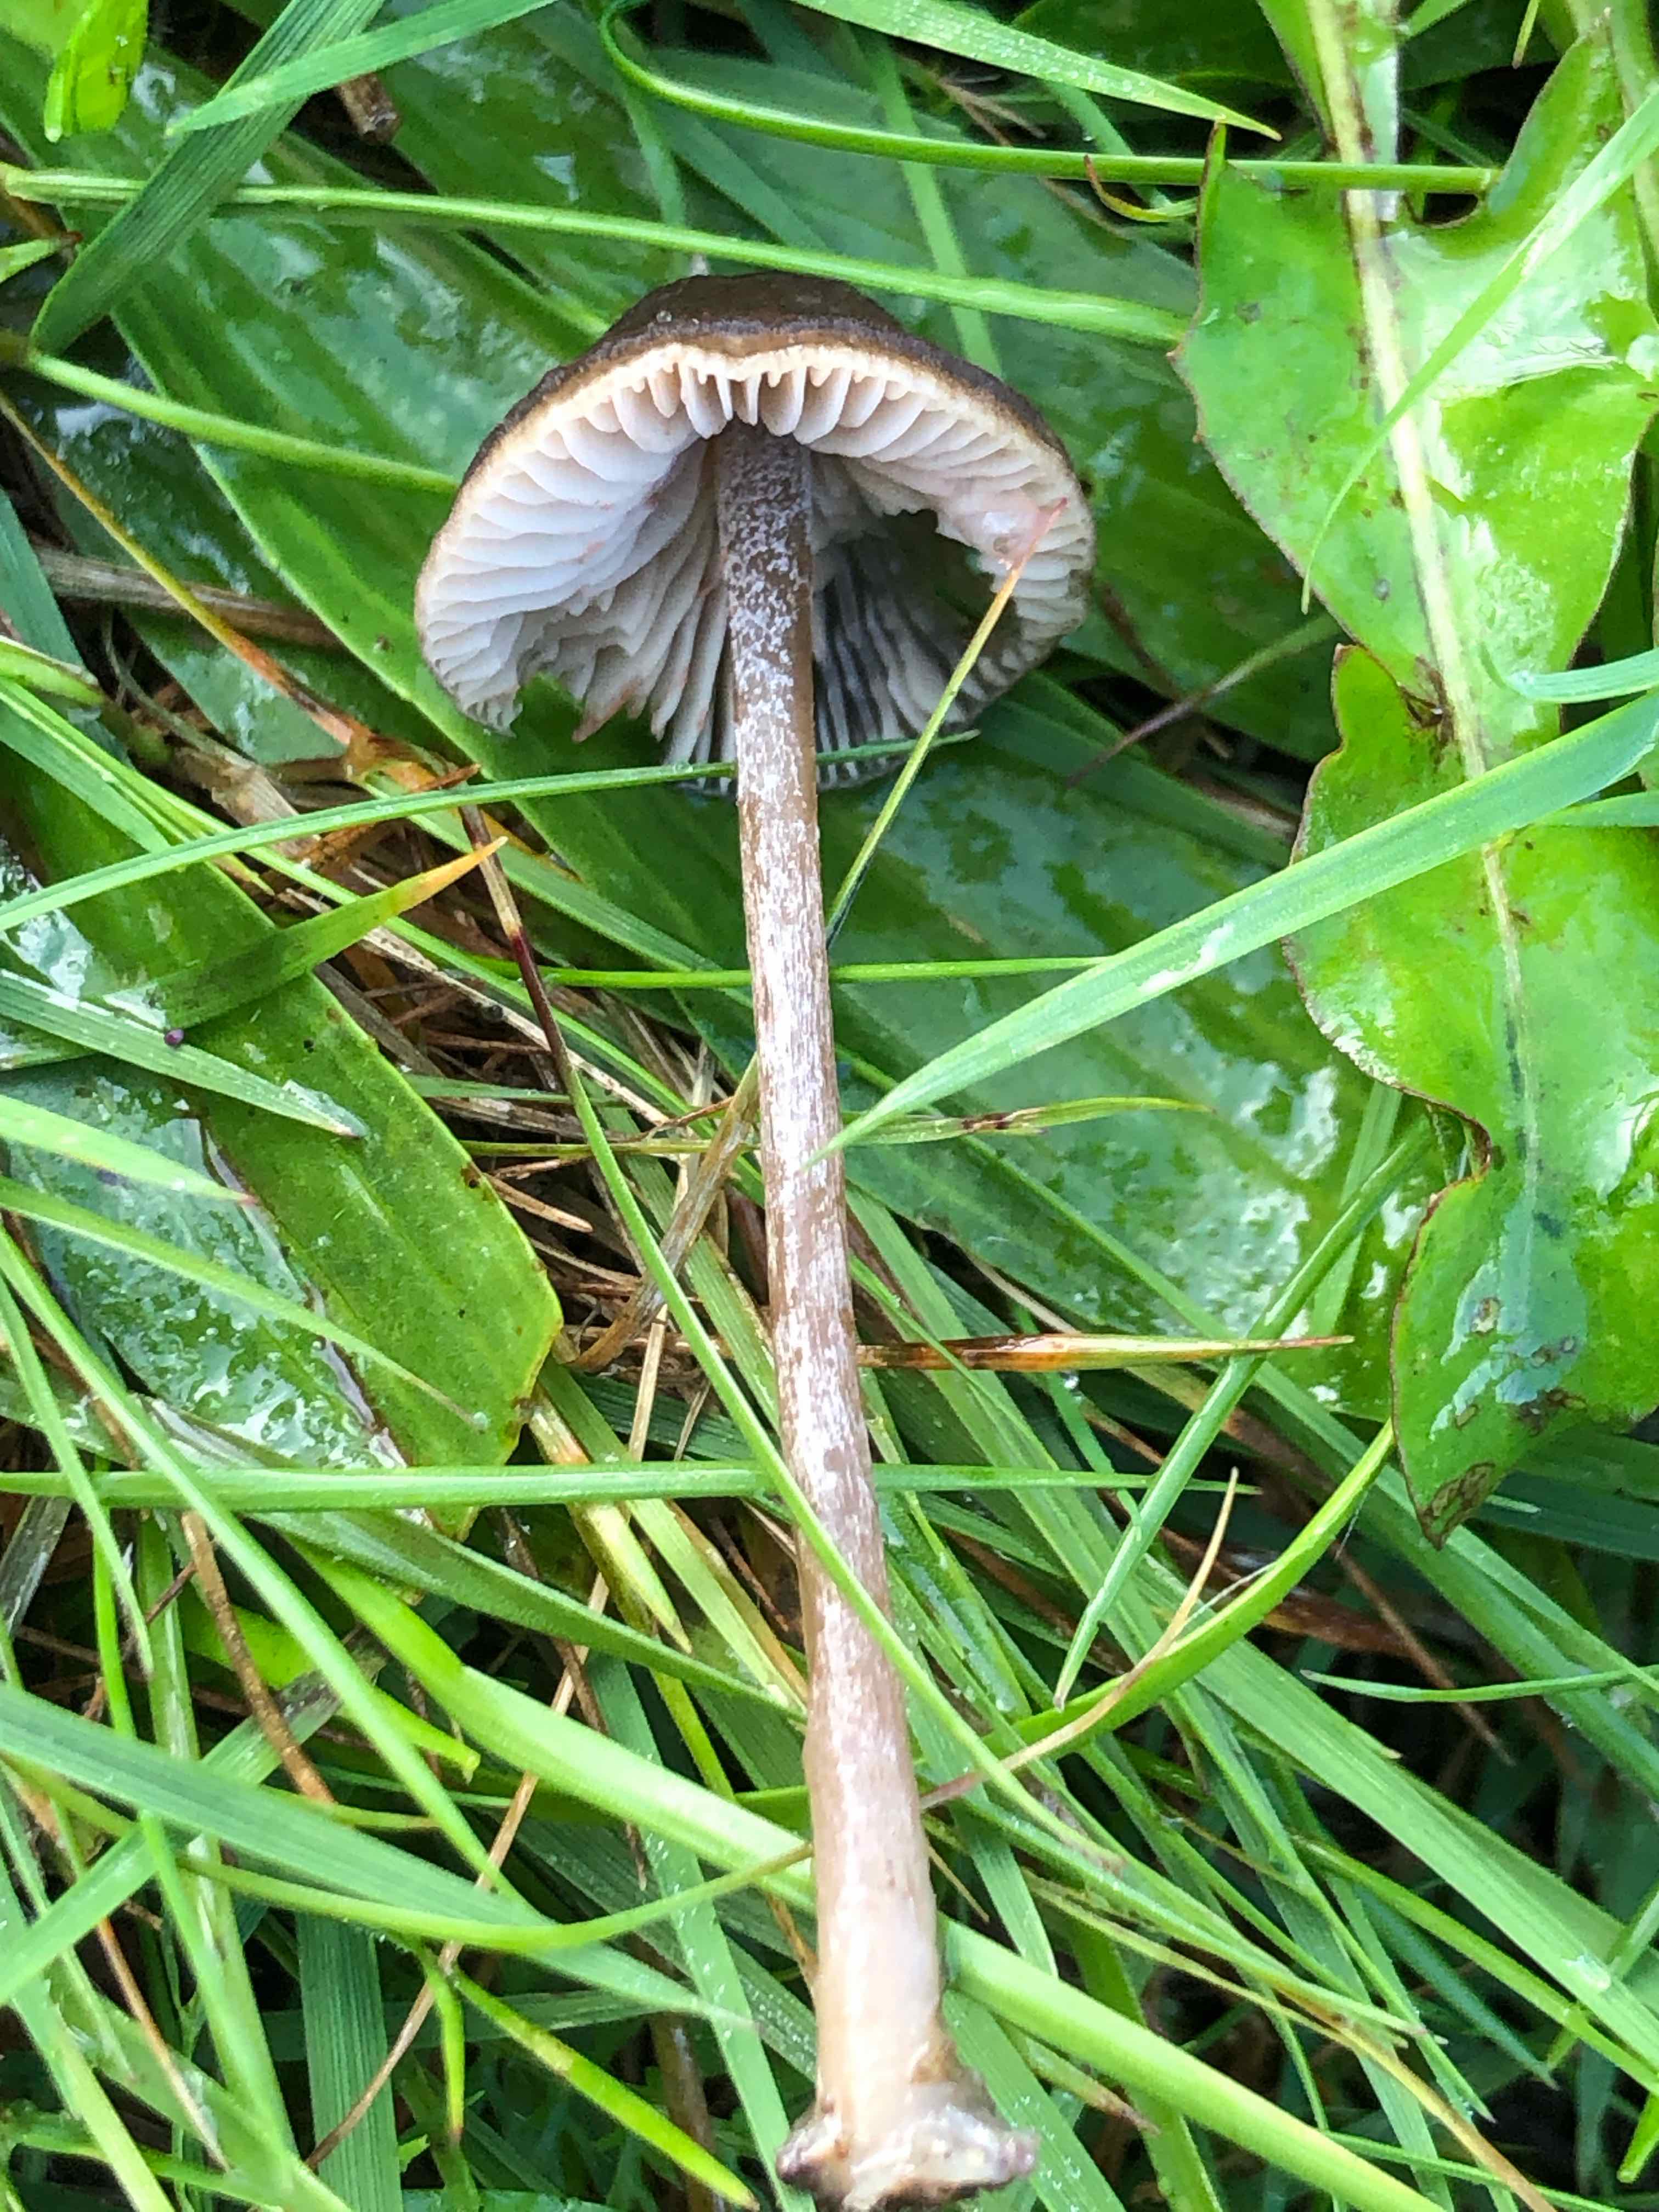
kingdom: Fungi
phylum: Basidiomycota
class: Agaricomycetes
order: Agaricales
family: Entolomataceae
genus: Entoloma
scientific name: Entoloma clandestinum
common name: tykbladet rødblad
